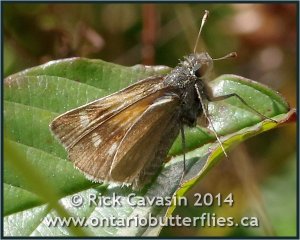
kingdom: Animalia
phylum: Arthropoda
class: Insecta
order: Lepidoptera
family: Hesperiidae
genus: Polites
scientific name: Polites themistocles
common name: Tawny-edged Skipper
